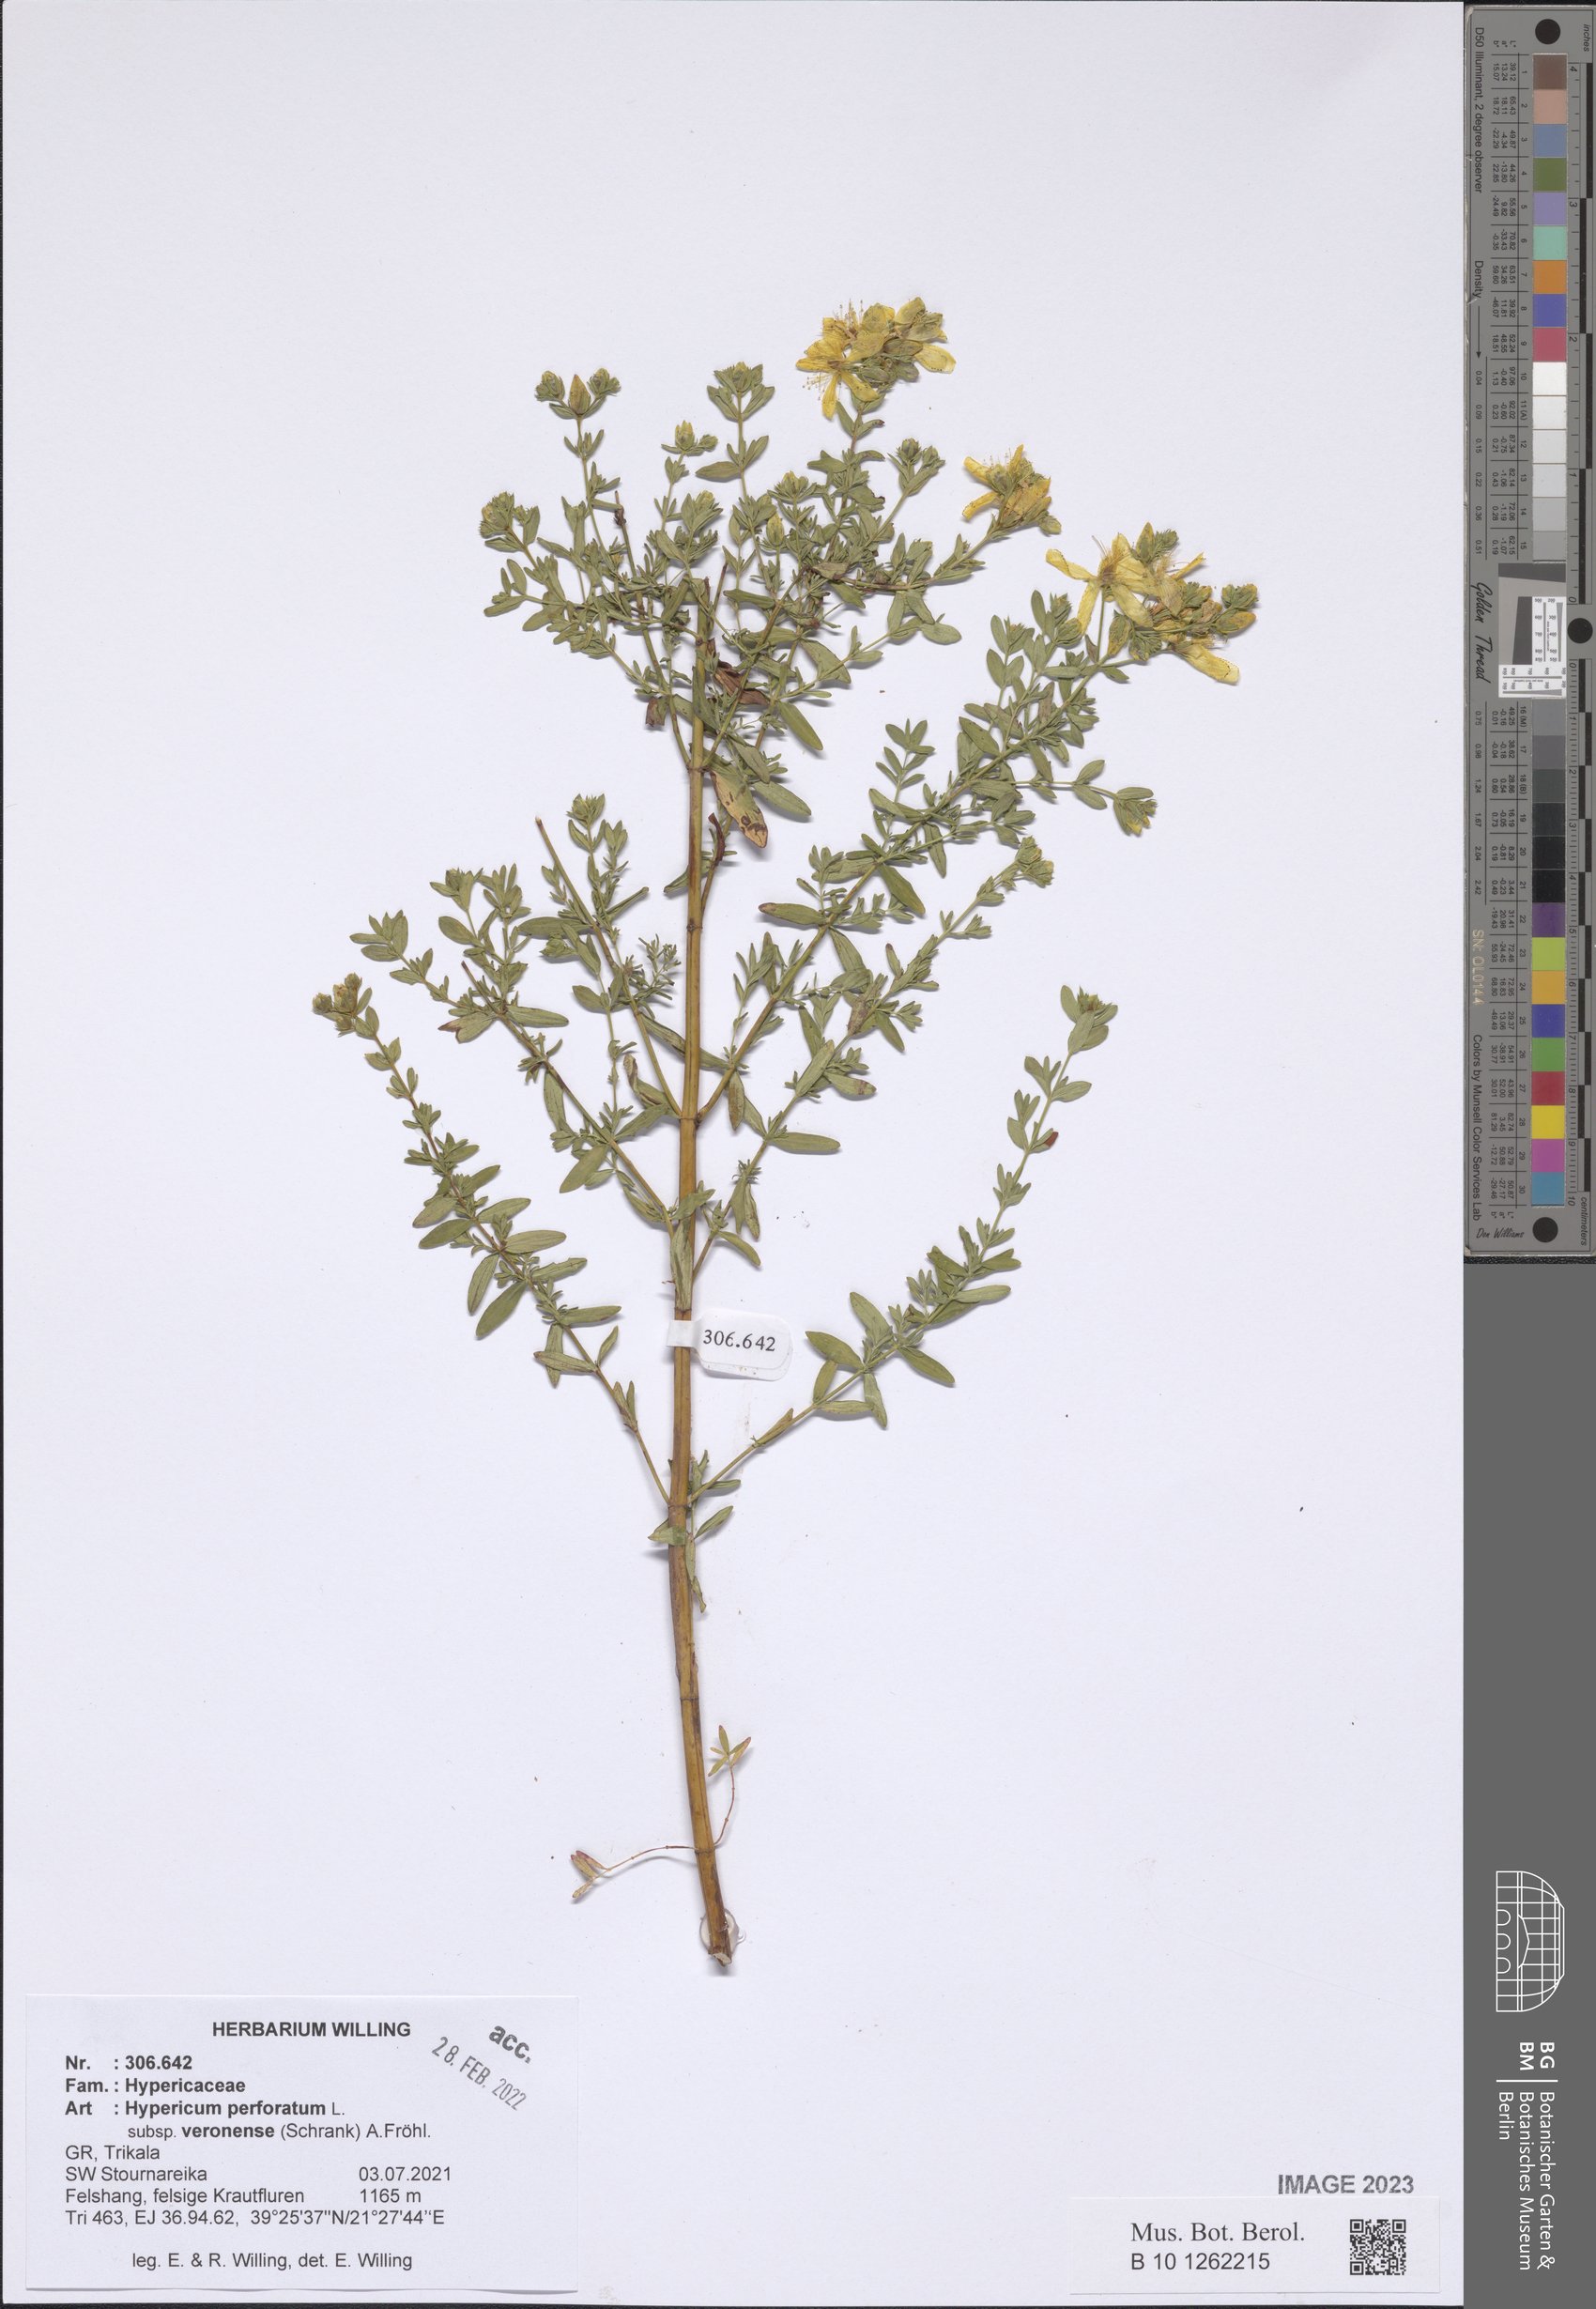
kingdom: Plantae
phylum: Tracheophyta
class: Magnoliopsida
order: Malpighiales
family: Hypericaceae
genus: Hypericum
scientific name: Hypericum veronense
